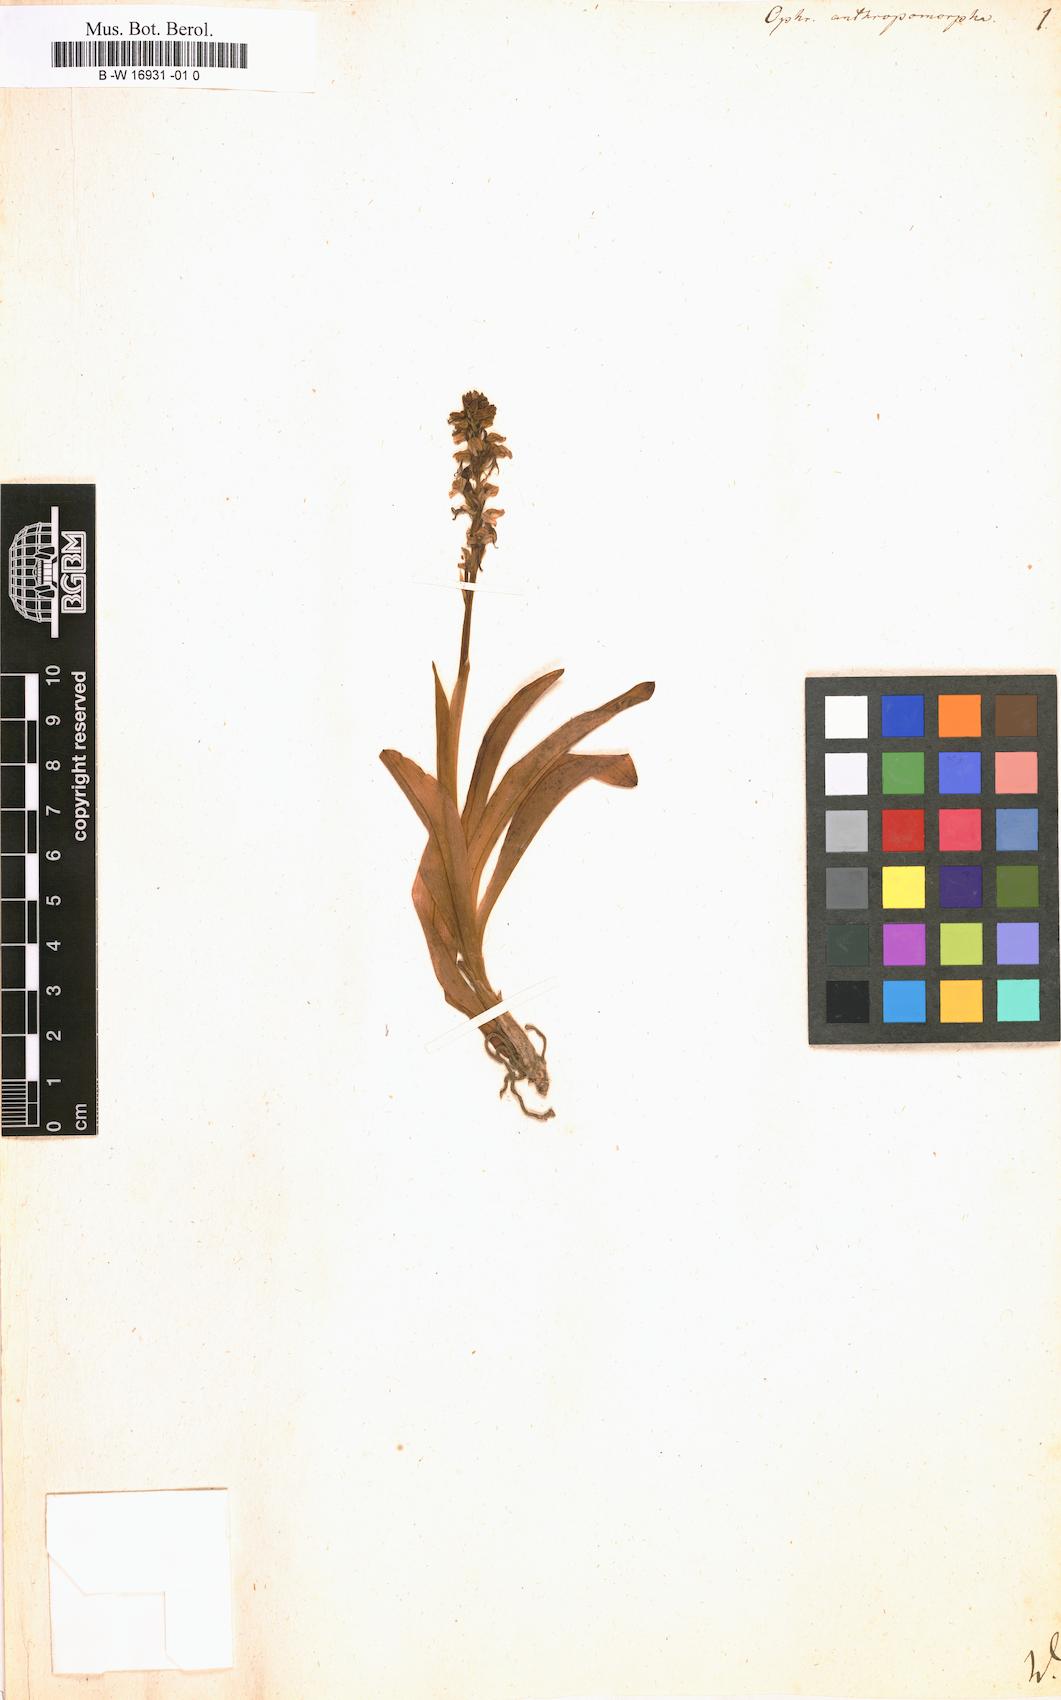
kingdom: Plantae
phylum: Tracheophyta
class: Liliopsida
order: Asparagales
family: Orchidaceae
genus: Orchis
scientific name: Orchis anthropophora
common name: Man orchid
